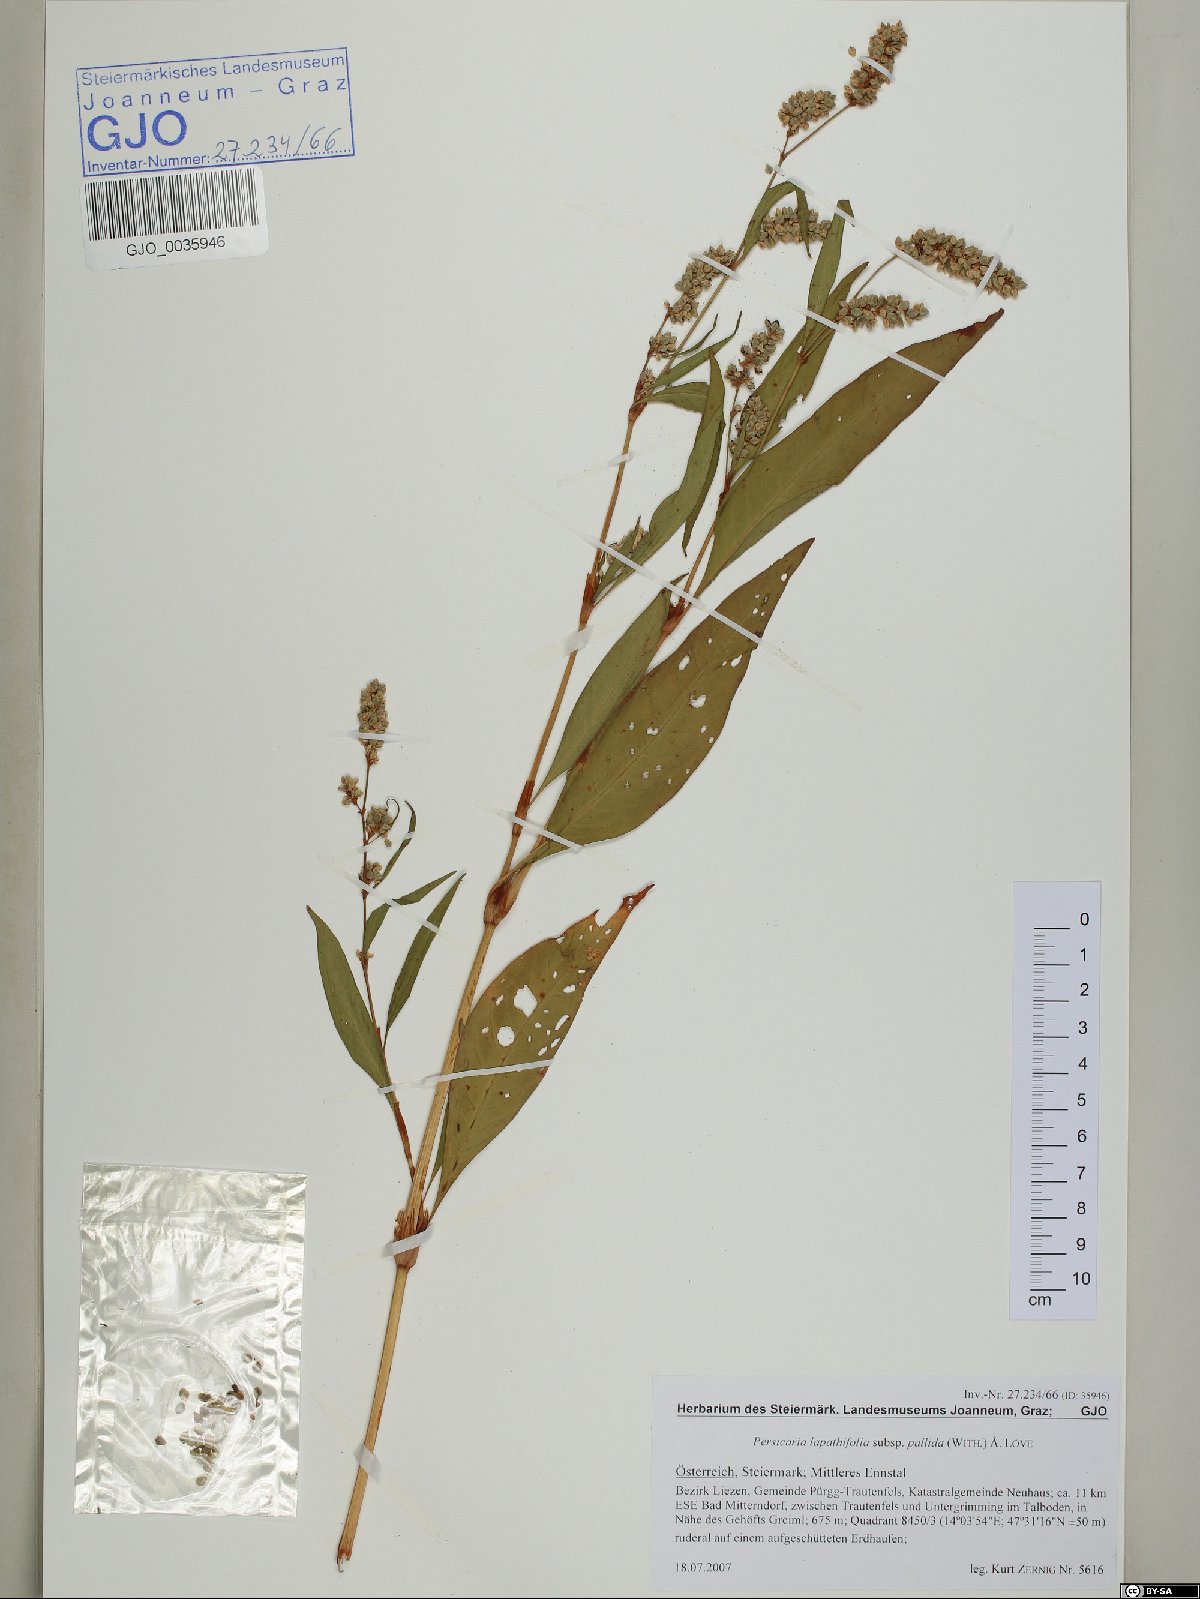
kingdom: Plantae
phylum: Tracheophyta
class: Magnoliopsida
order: Caryophyllales
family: Polygonaceae
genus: Persicaria
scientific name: Persicaria lapathifolia
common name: Curlytop knotweed
